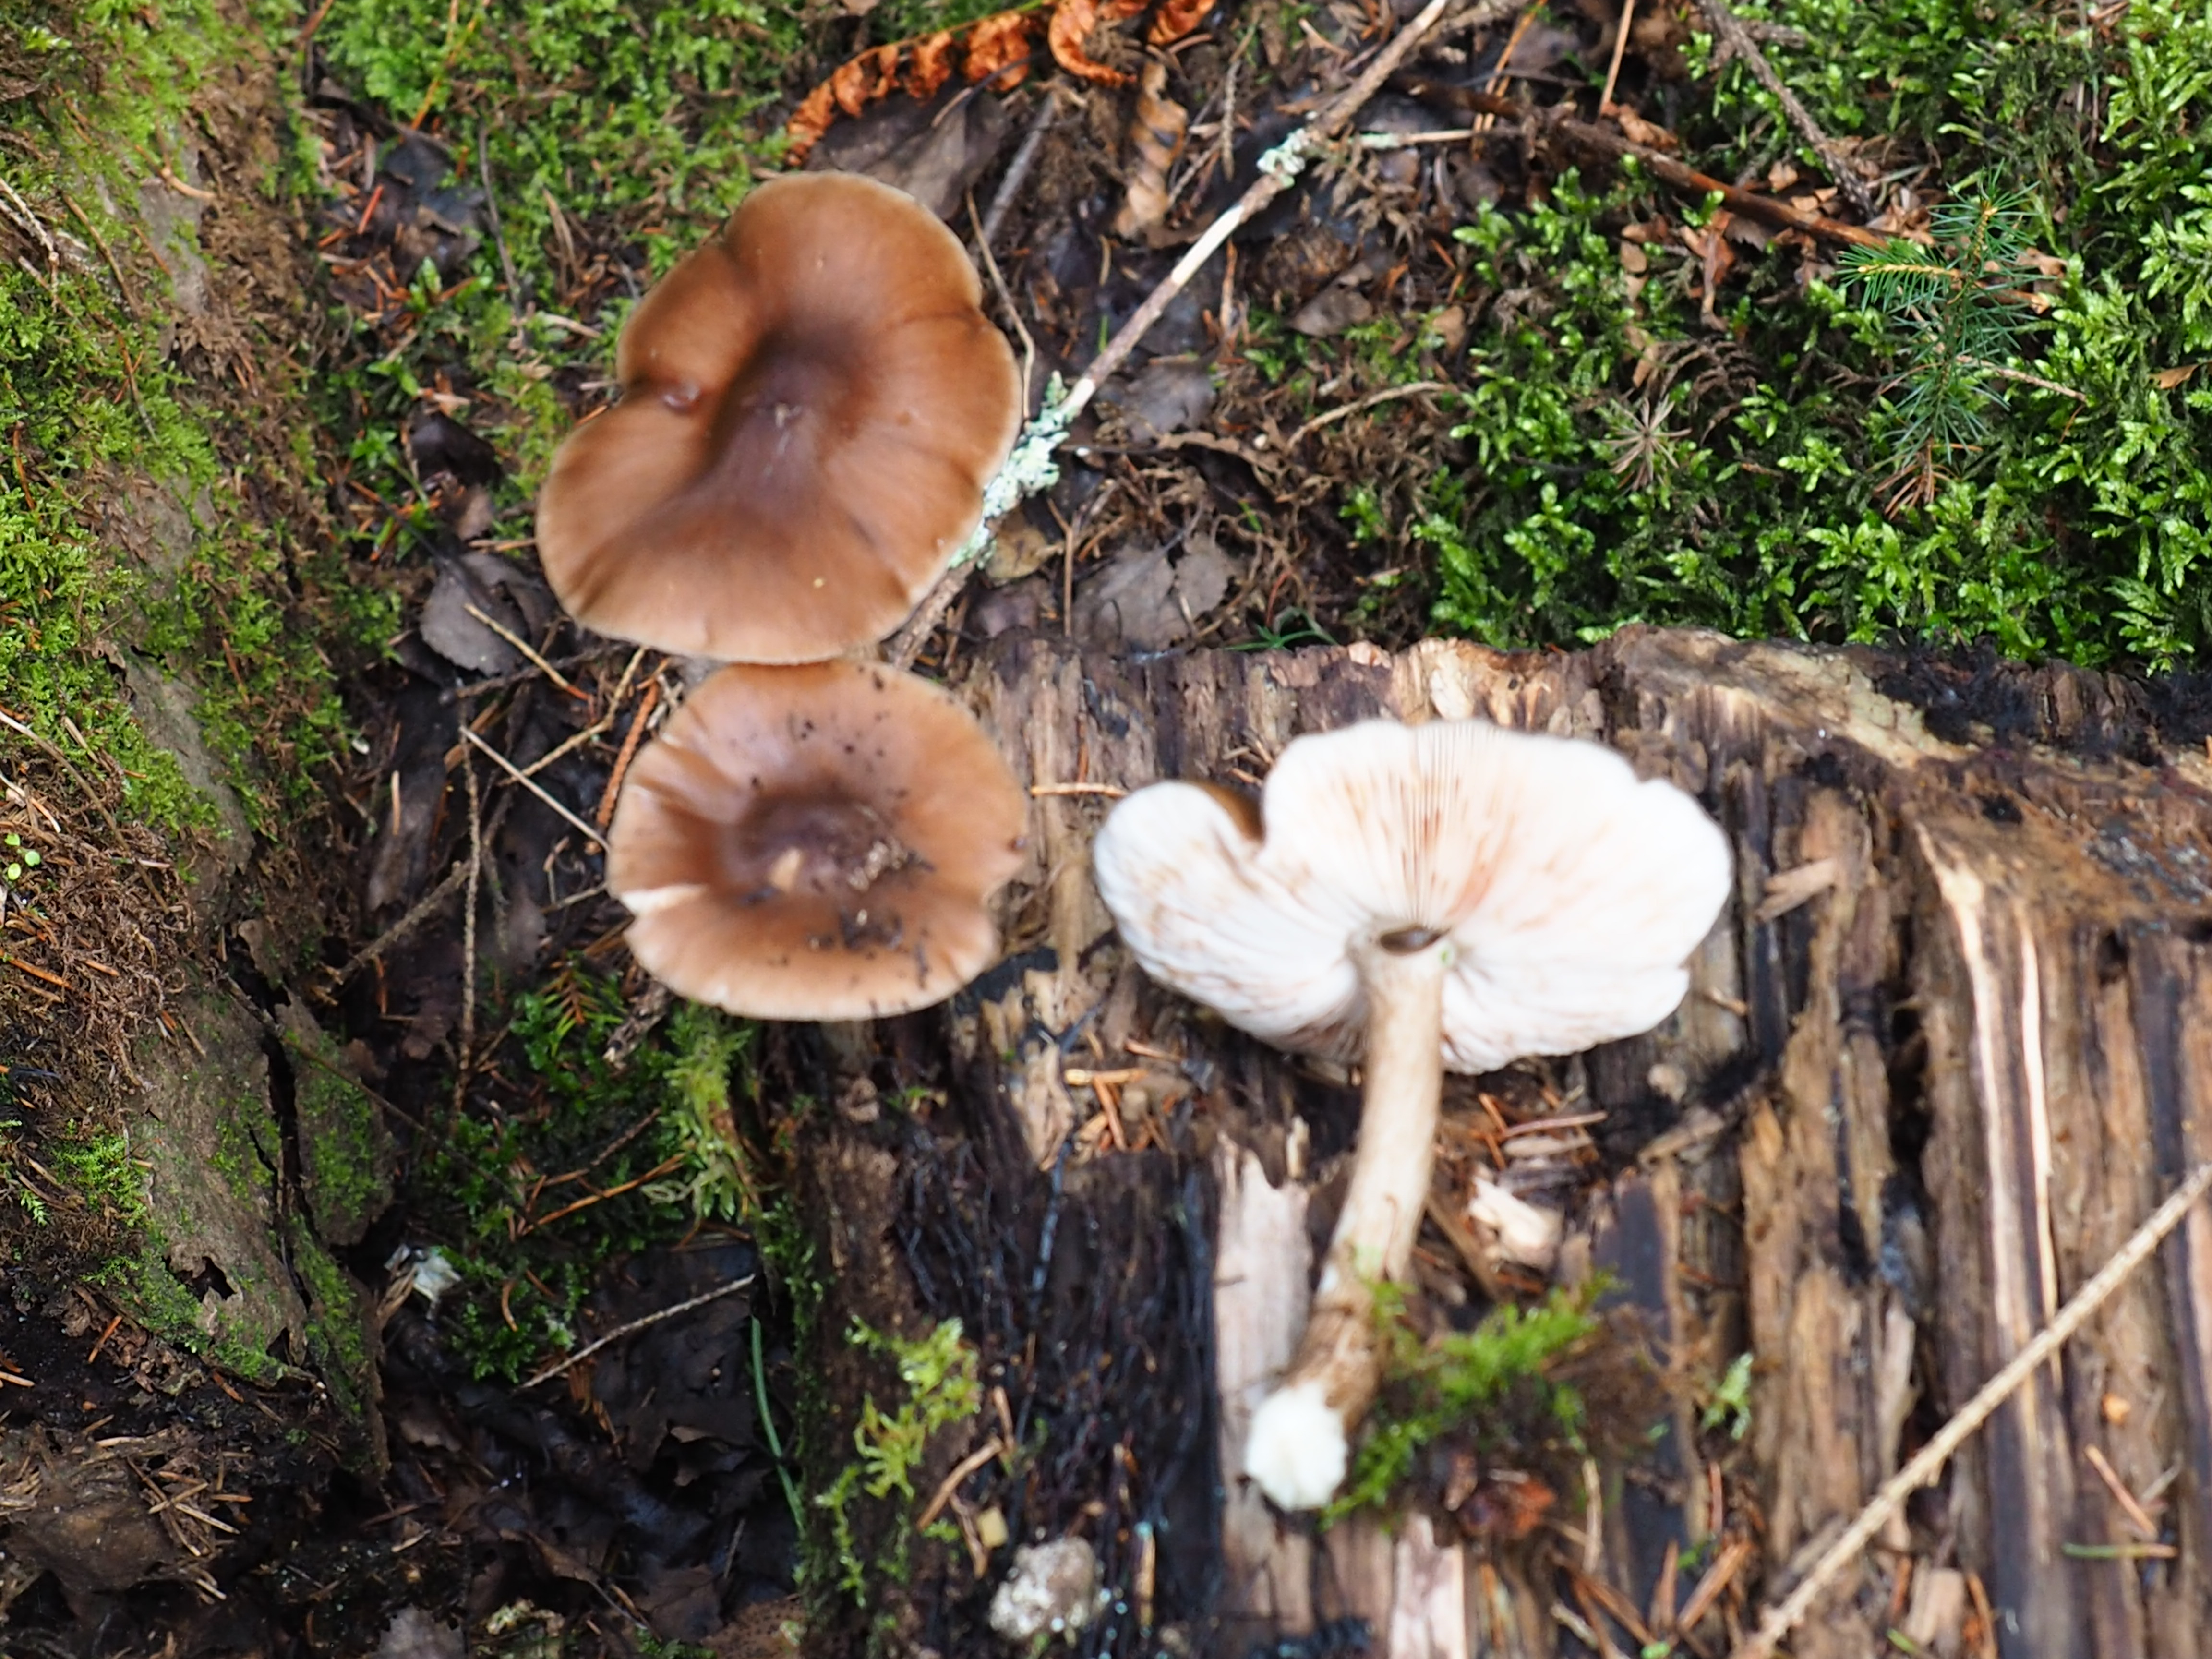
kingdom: Fungi
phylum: Basidiomycota
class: Agaricomycetes
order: Agaricales
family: Pluteaceae
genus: Pluteus
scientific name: Pluteus cervinus
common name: Deer shield
